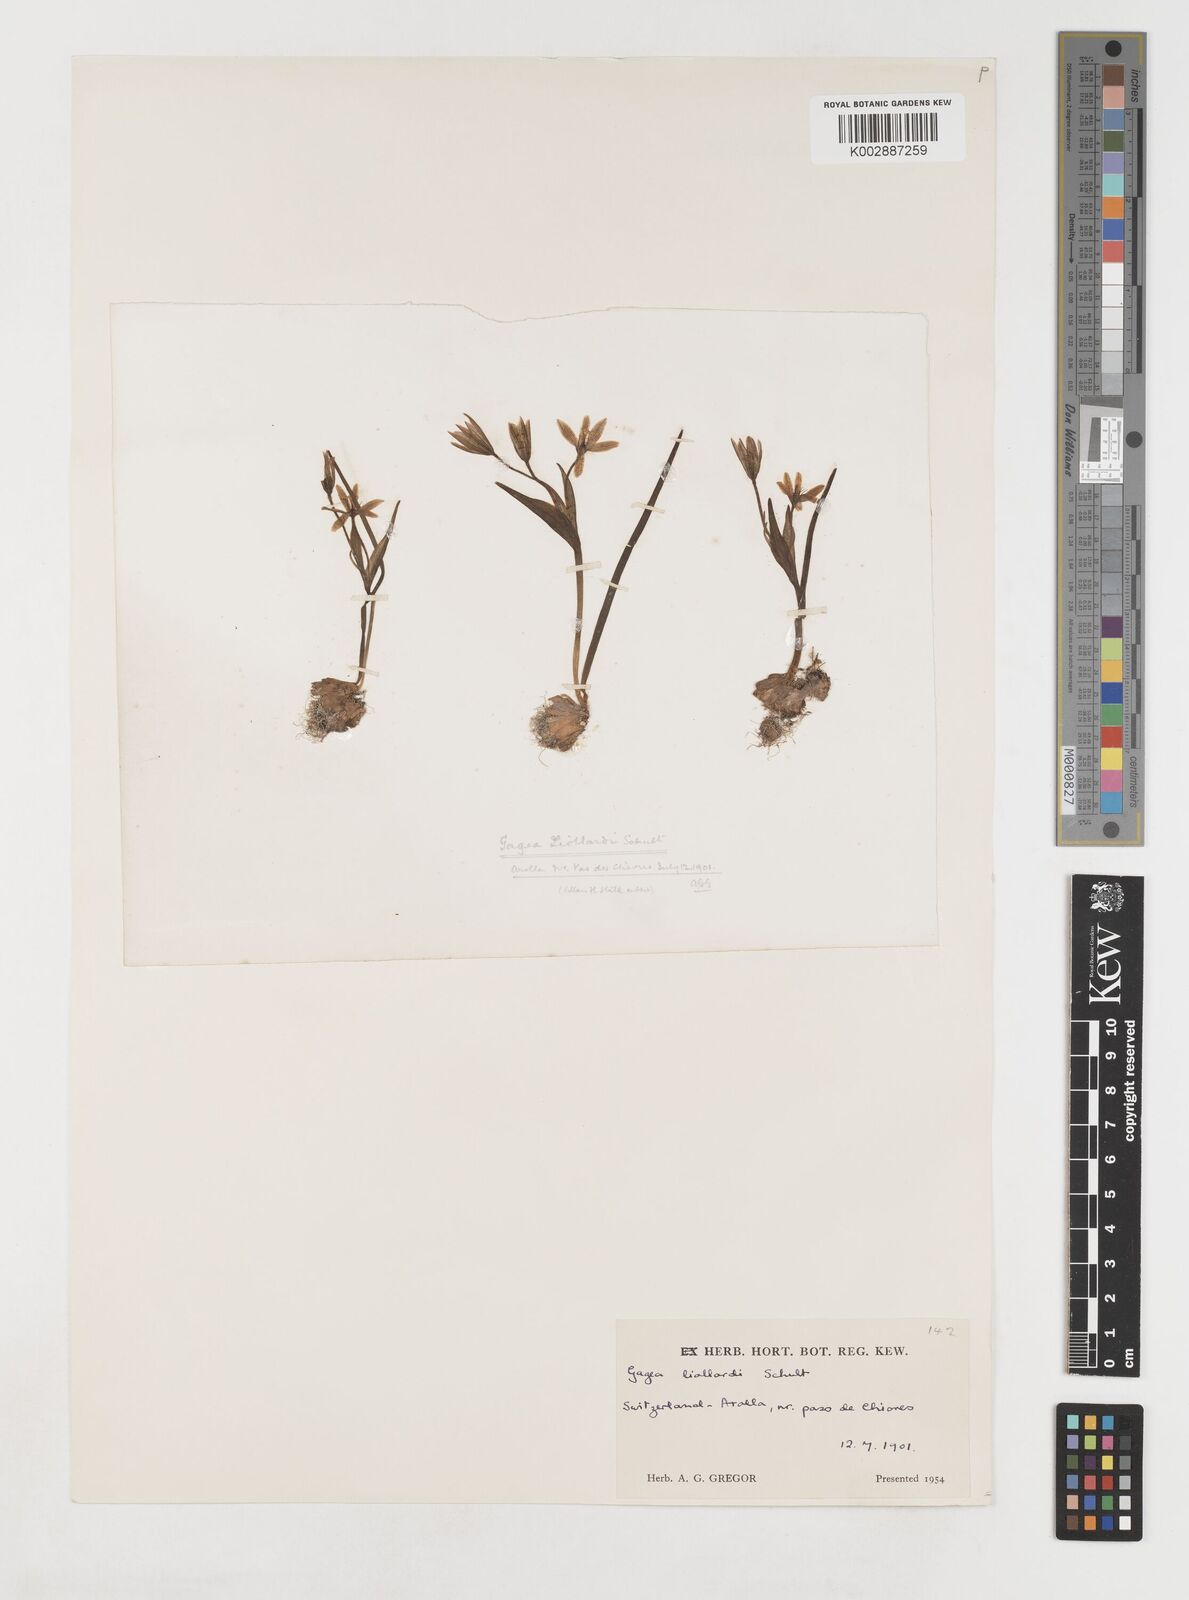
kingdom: Plantae
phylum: Tracheophyta
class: Liliopsida
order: Liliales
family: Liliaceae
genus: Gagea
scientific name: Gagea bohemica
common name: Early star-of-bethlehem
